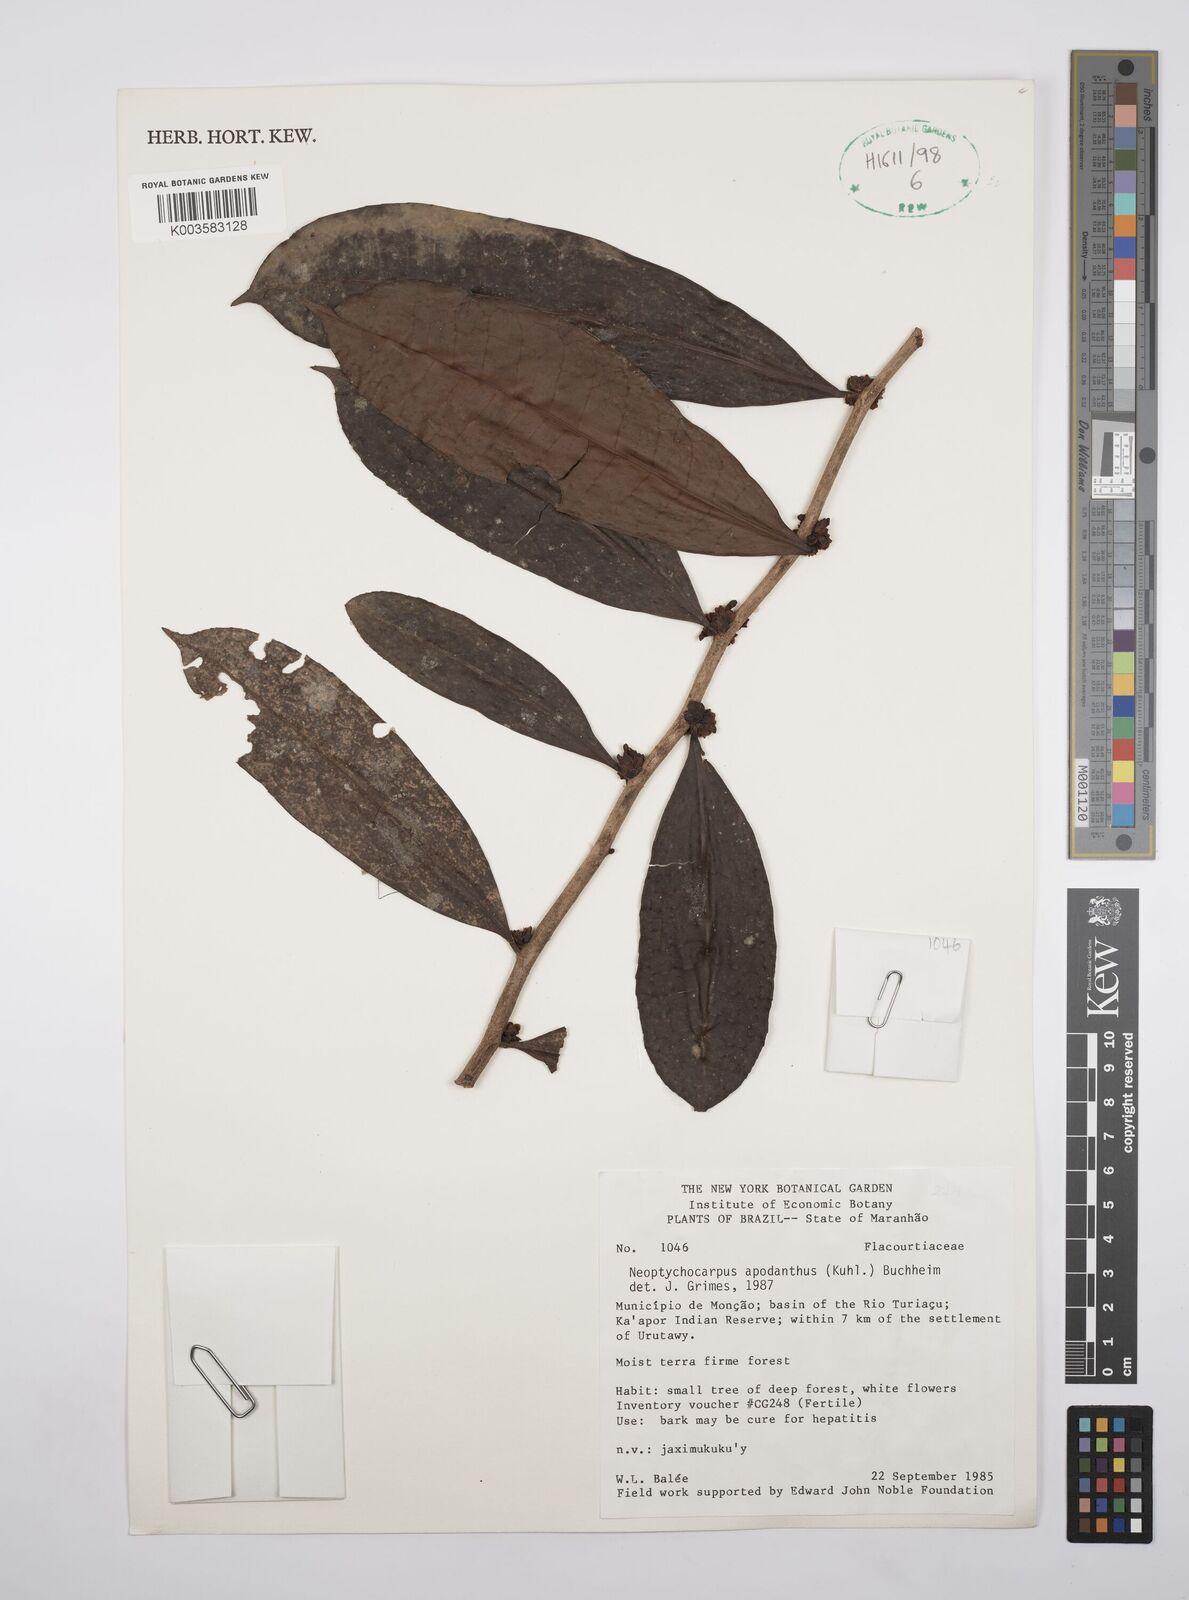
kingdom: Plantae
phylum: Tracheophyta
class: Magnoliopsida
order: Malpighiales
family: Salicaceae
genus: Casearia
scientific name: Casearia apodantha
